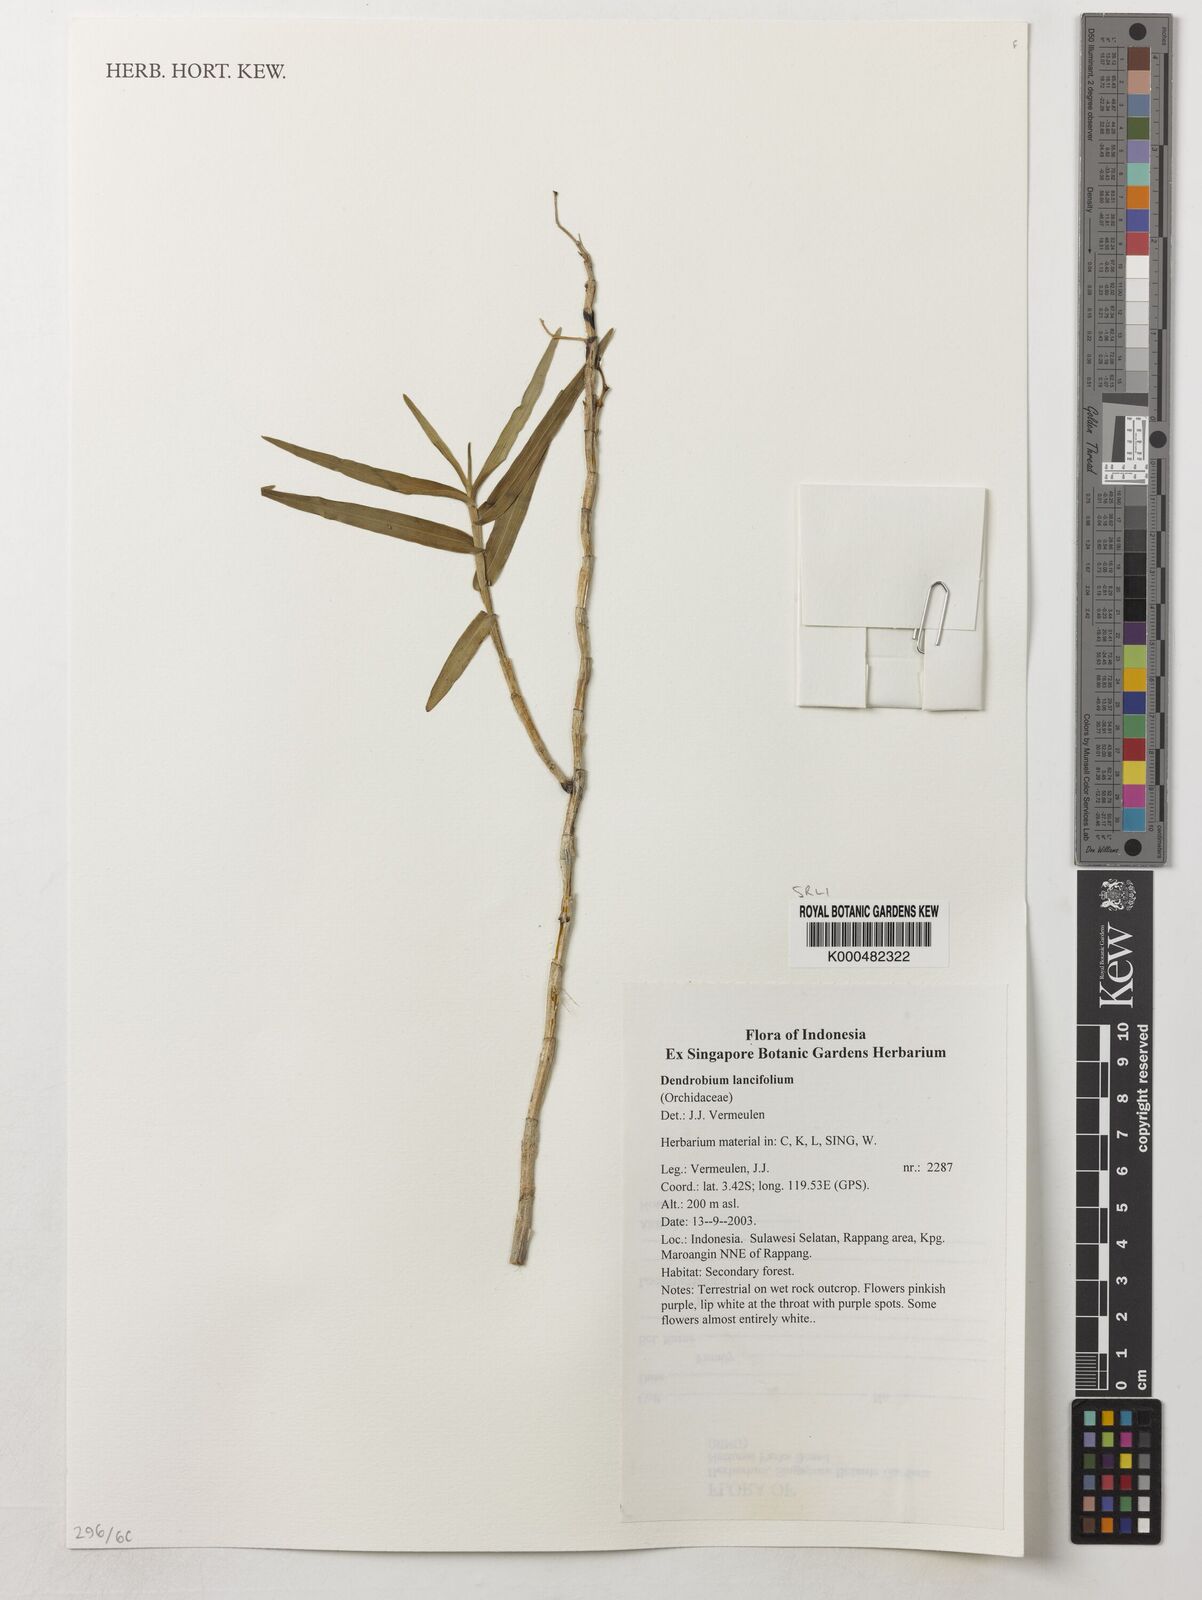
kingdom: Plantae
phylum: Tracheophyta
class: Liliopsida
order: Asparagales
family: Orchidaceae
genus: Dendrobium
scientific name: Dendrobium lanceolatum
